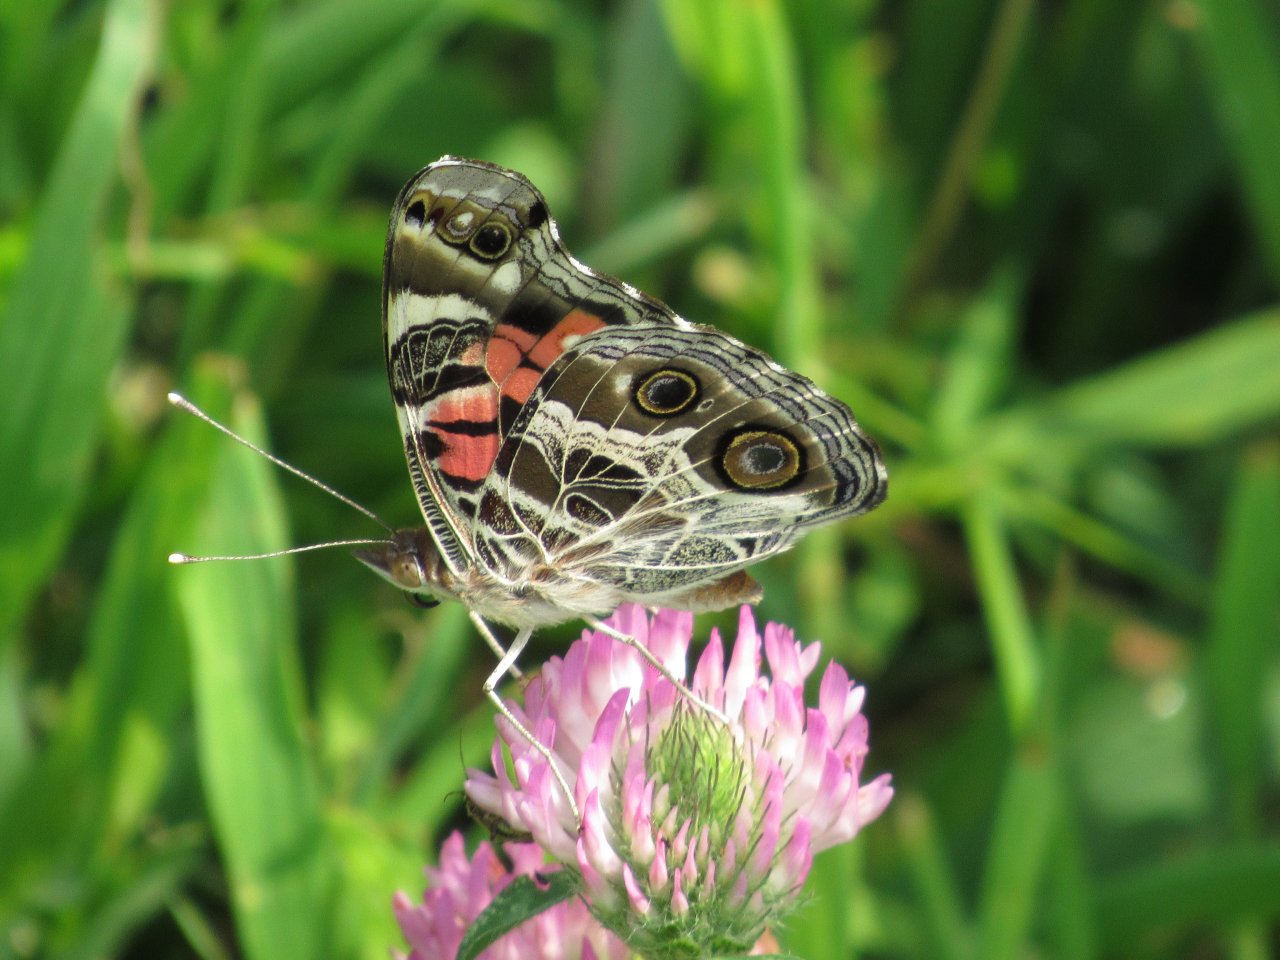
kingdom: Animalia
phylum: Arthropoda
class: Insecta
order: Lepidoptera
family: Nymphalidae
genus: Vanessa
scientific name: Vanessa virginiensis
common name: American Lady
